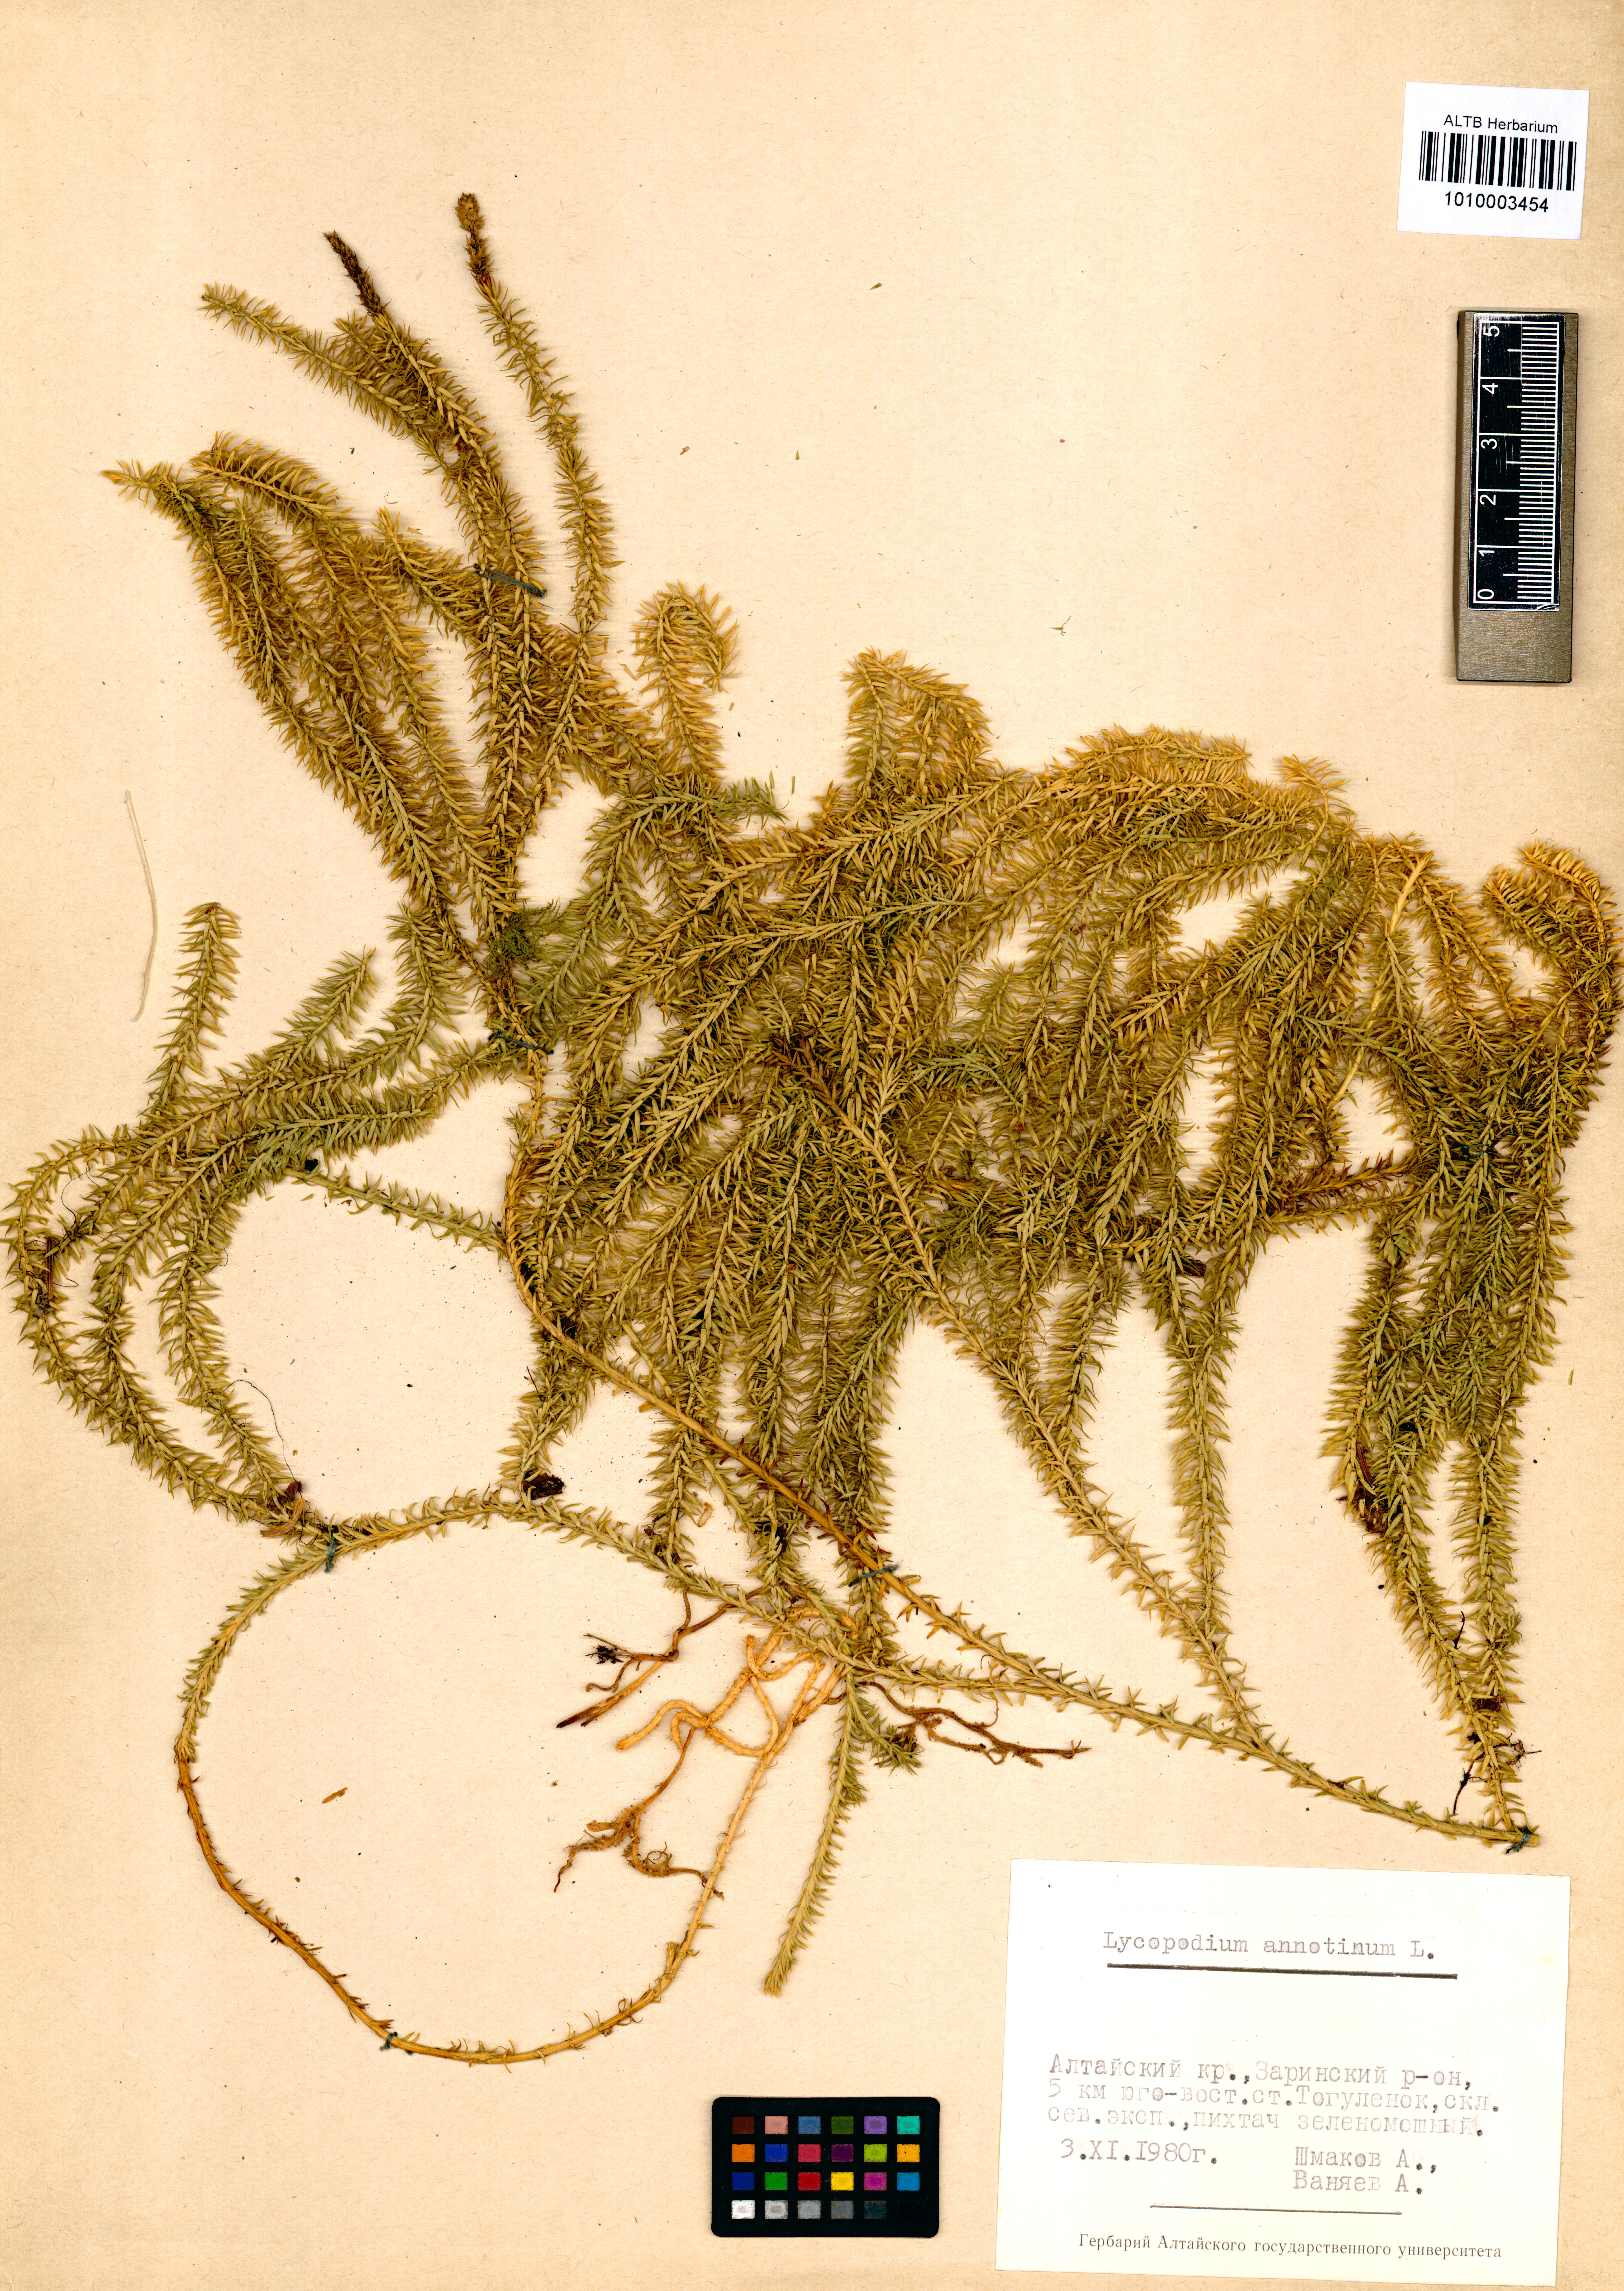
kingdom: Plantae
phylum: Tracheophyta
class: Lycopodiopsida
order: Lycopodiales
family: Lycopodiaceae
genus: Spinulum
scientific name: Spinulum annotinum
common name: Interrupted club-moss
